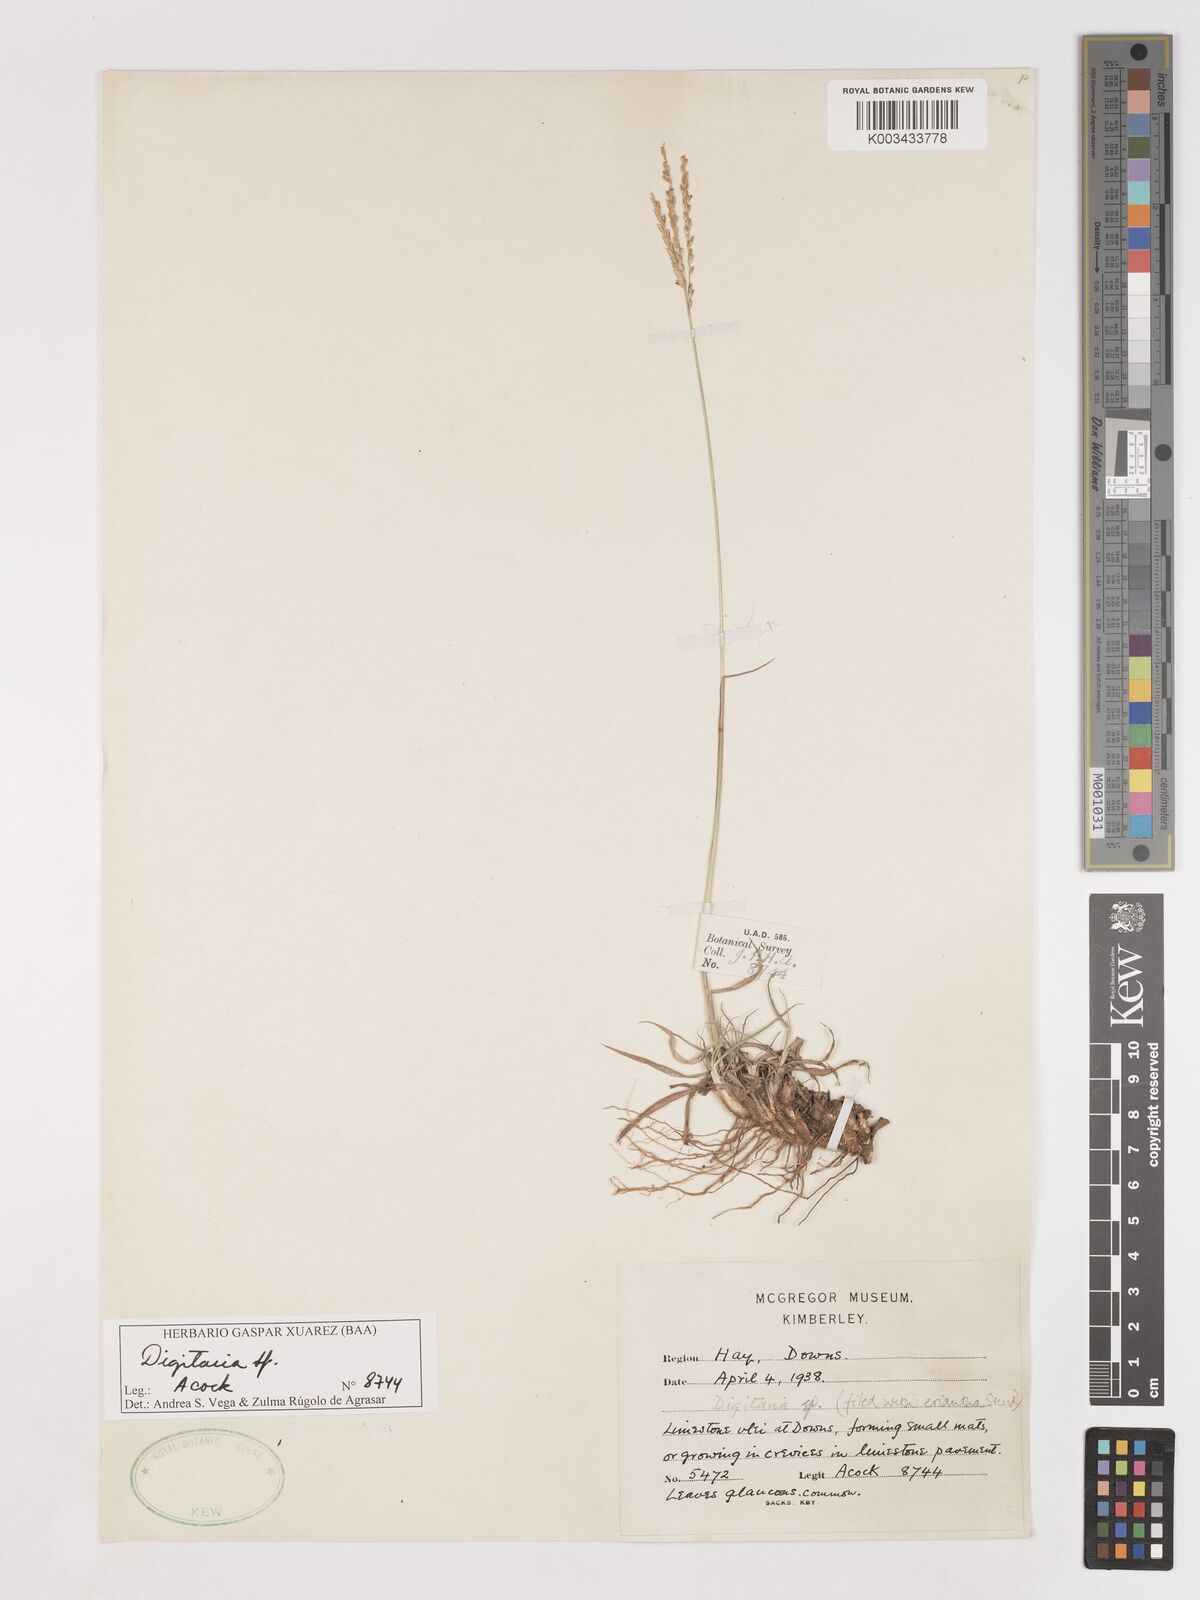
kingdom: Plantae
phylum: Tracheophyta
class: Liliopsida
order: Poales
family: Poaceae
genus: Digitaria
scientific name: Digitaria spec
